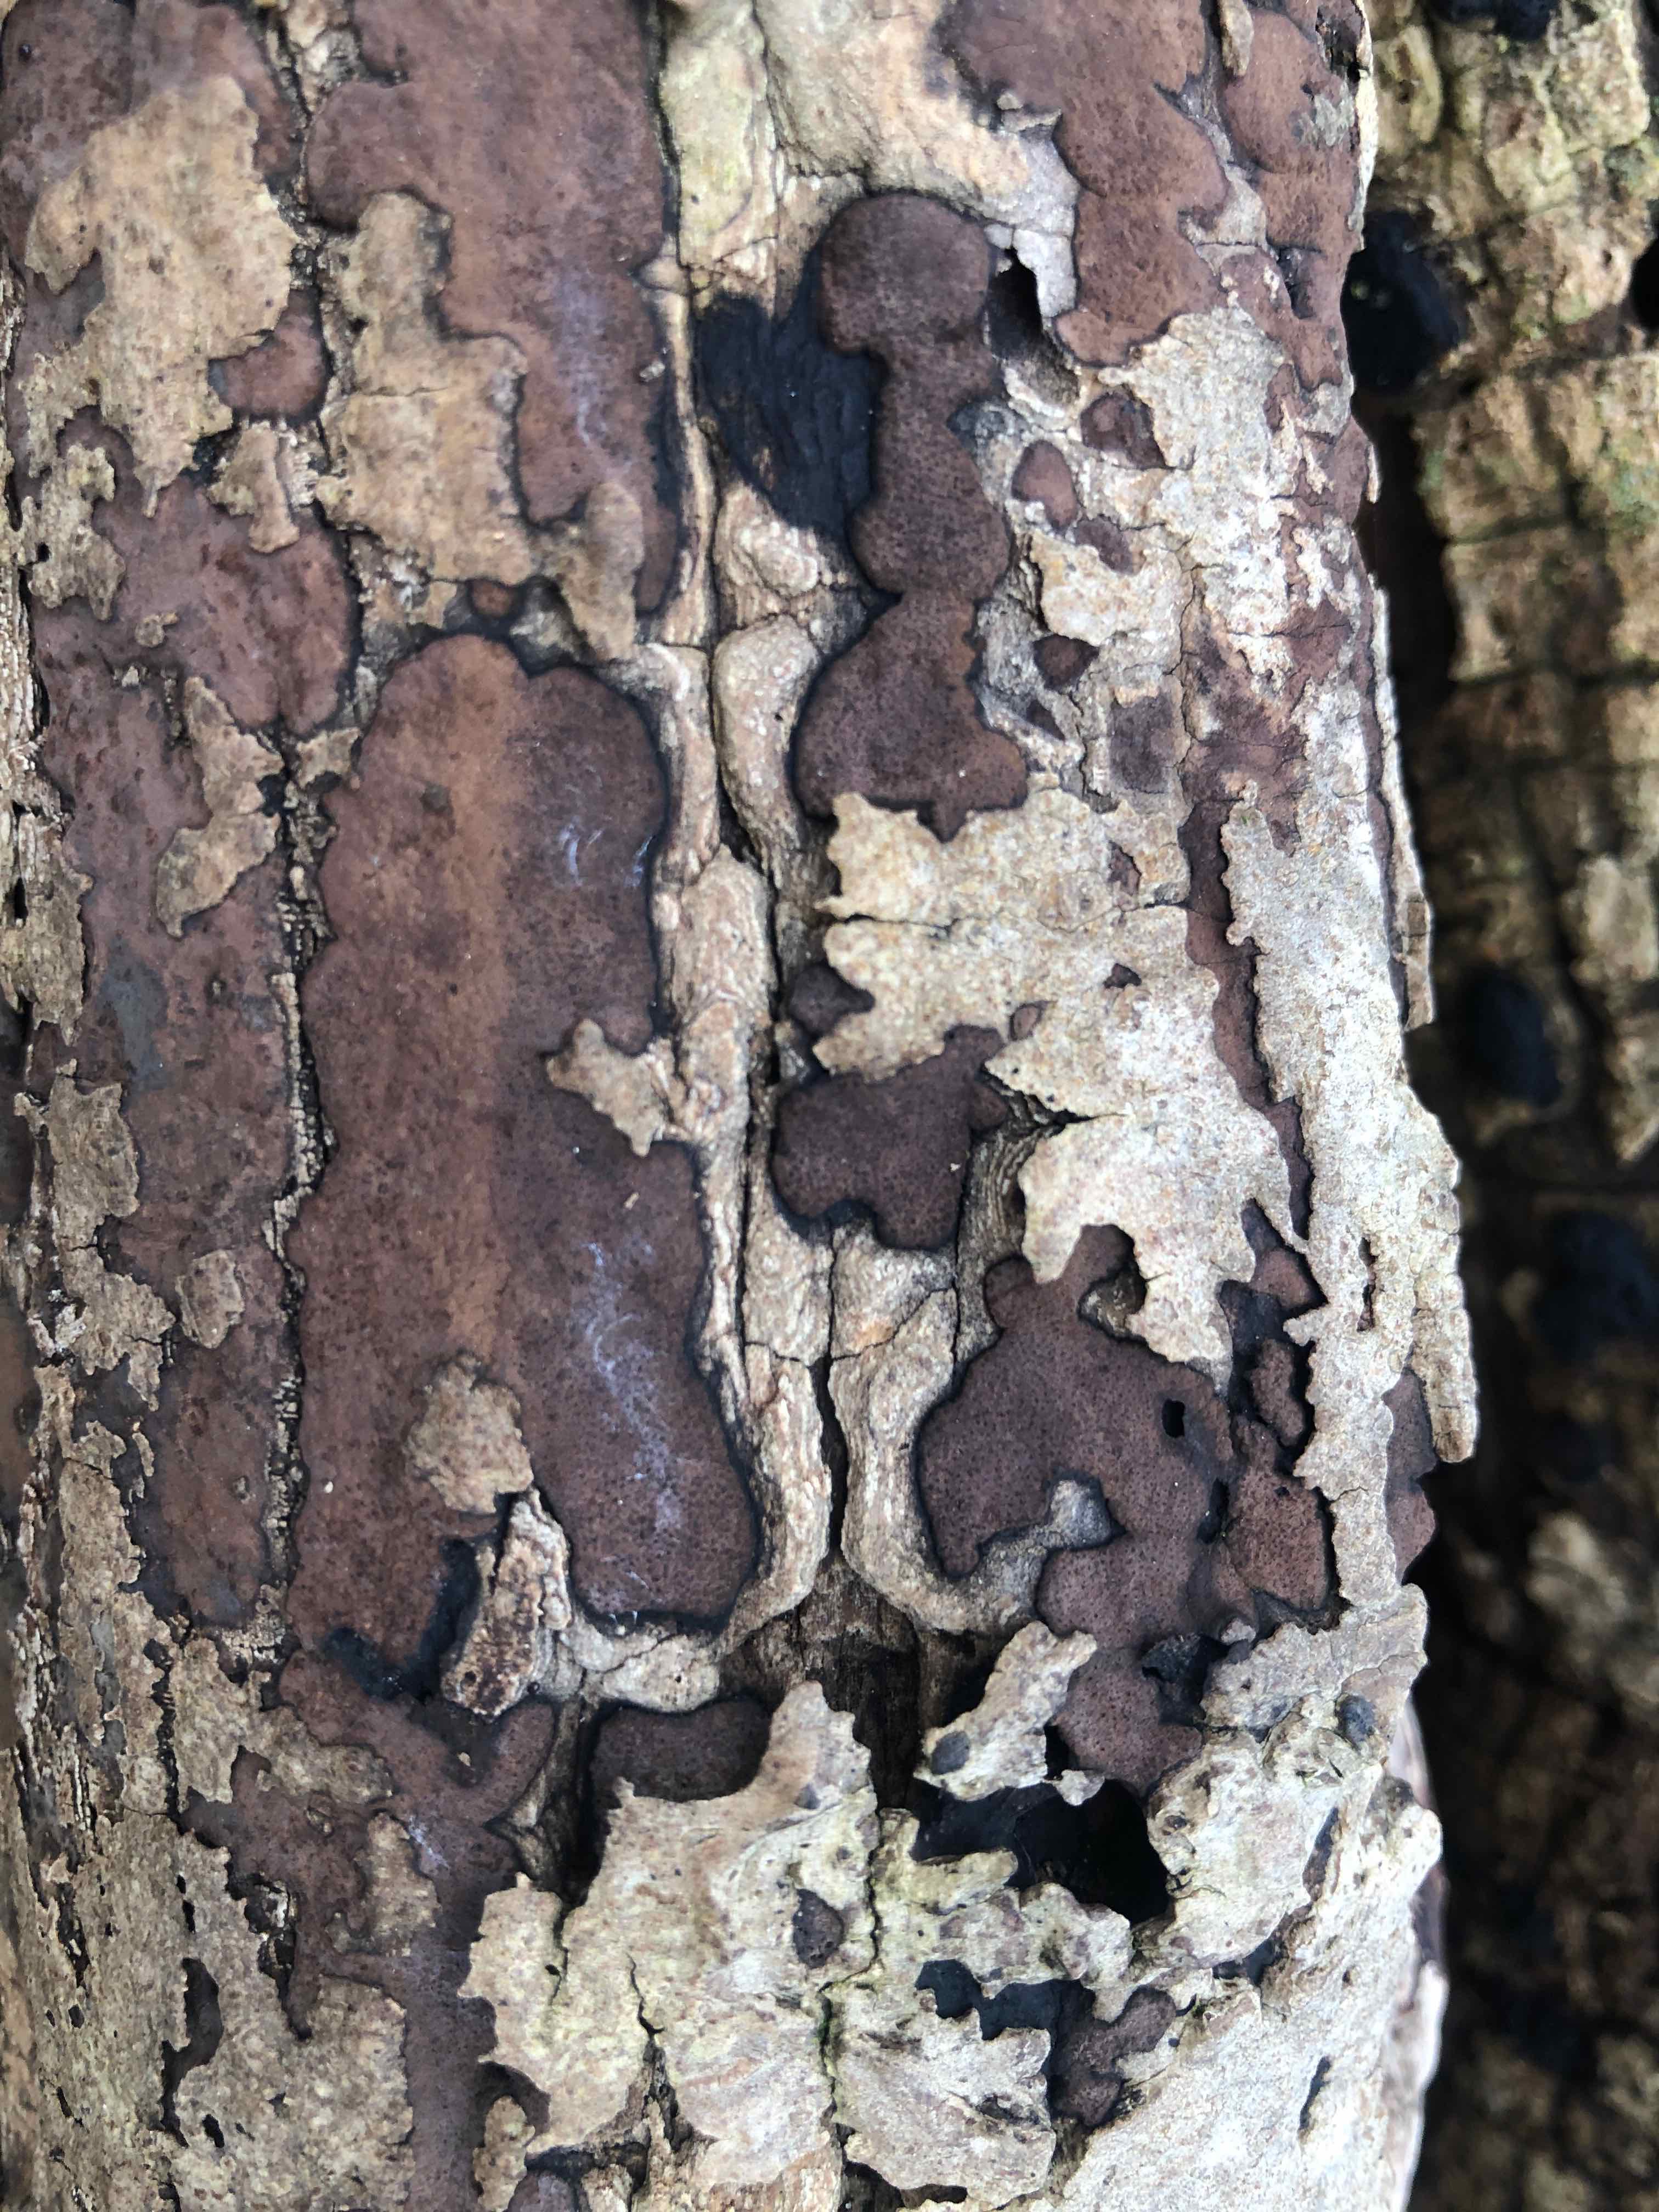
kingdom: Fungi
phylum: Ascomycota
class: Sordariomycetes
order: Xylariales
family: Hypoxylaceae
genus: Hypoxylon
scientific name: Hypoxylon petriniae
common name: nedsænket kulbær
